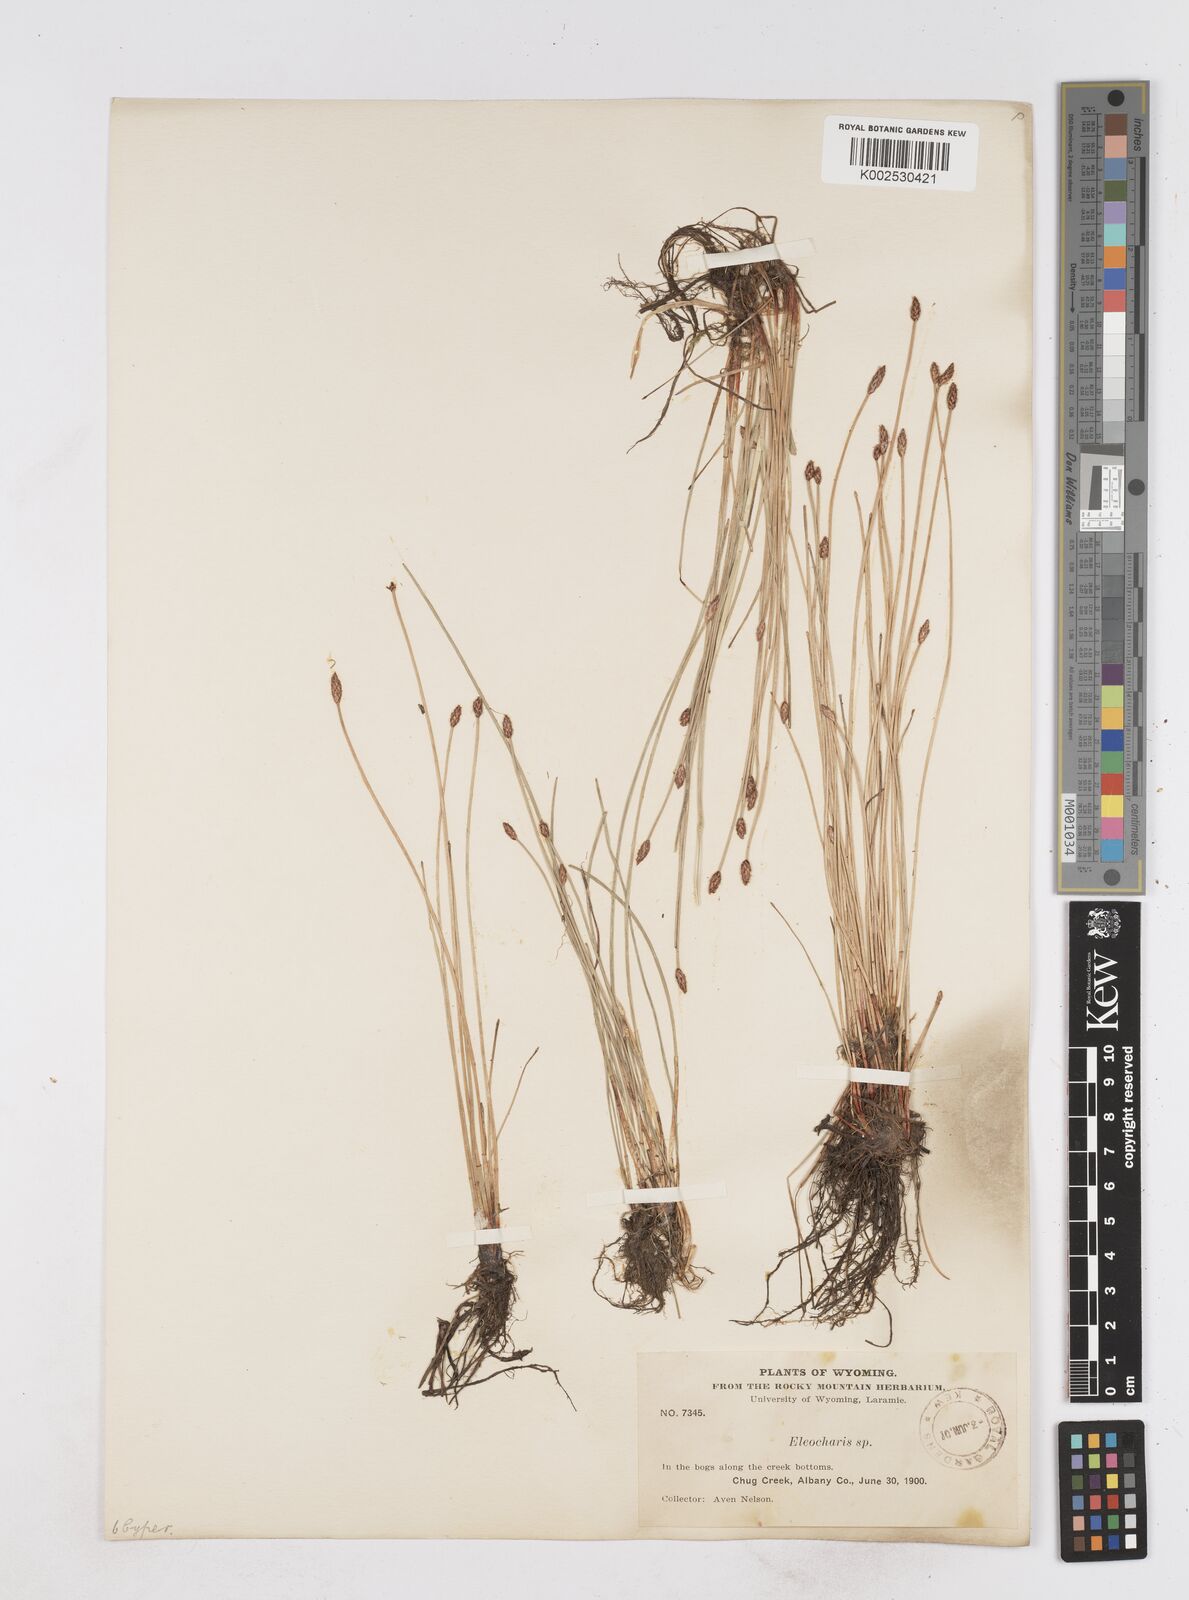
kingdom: Plantae
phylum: Tracheophyta
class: Liliopsida
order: Poales
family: Cyperaceae
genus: Eleocharis
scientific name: Eleocharis
